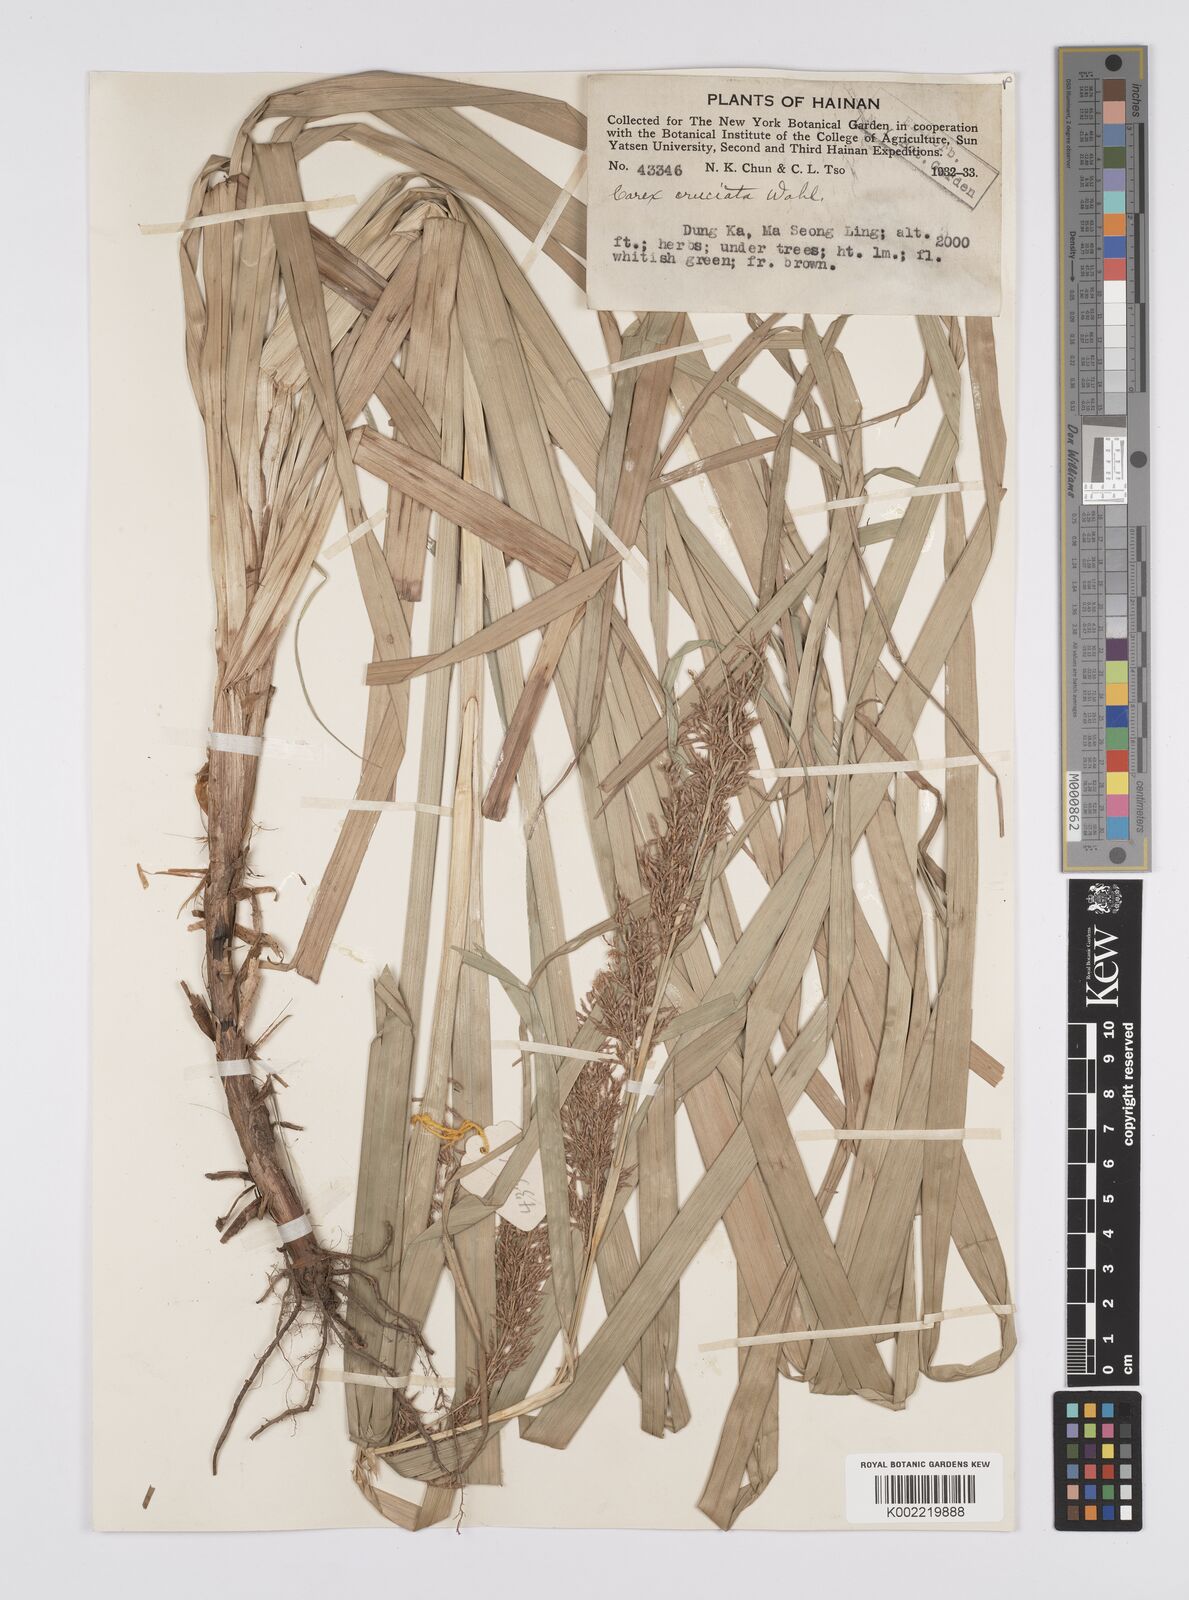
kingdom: Plantae
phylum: Tracheophyta
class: Liliopsida
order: Poales
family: Cyperaceae
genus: Carex
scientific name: Carex cruciata
